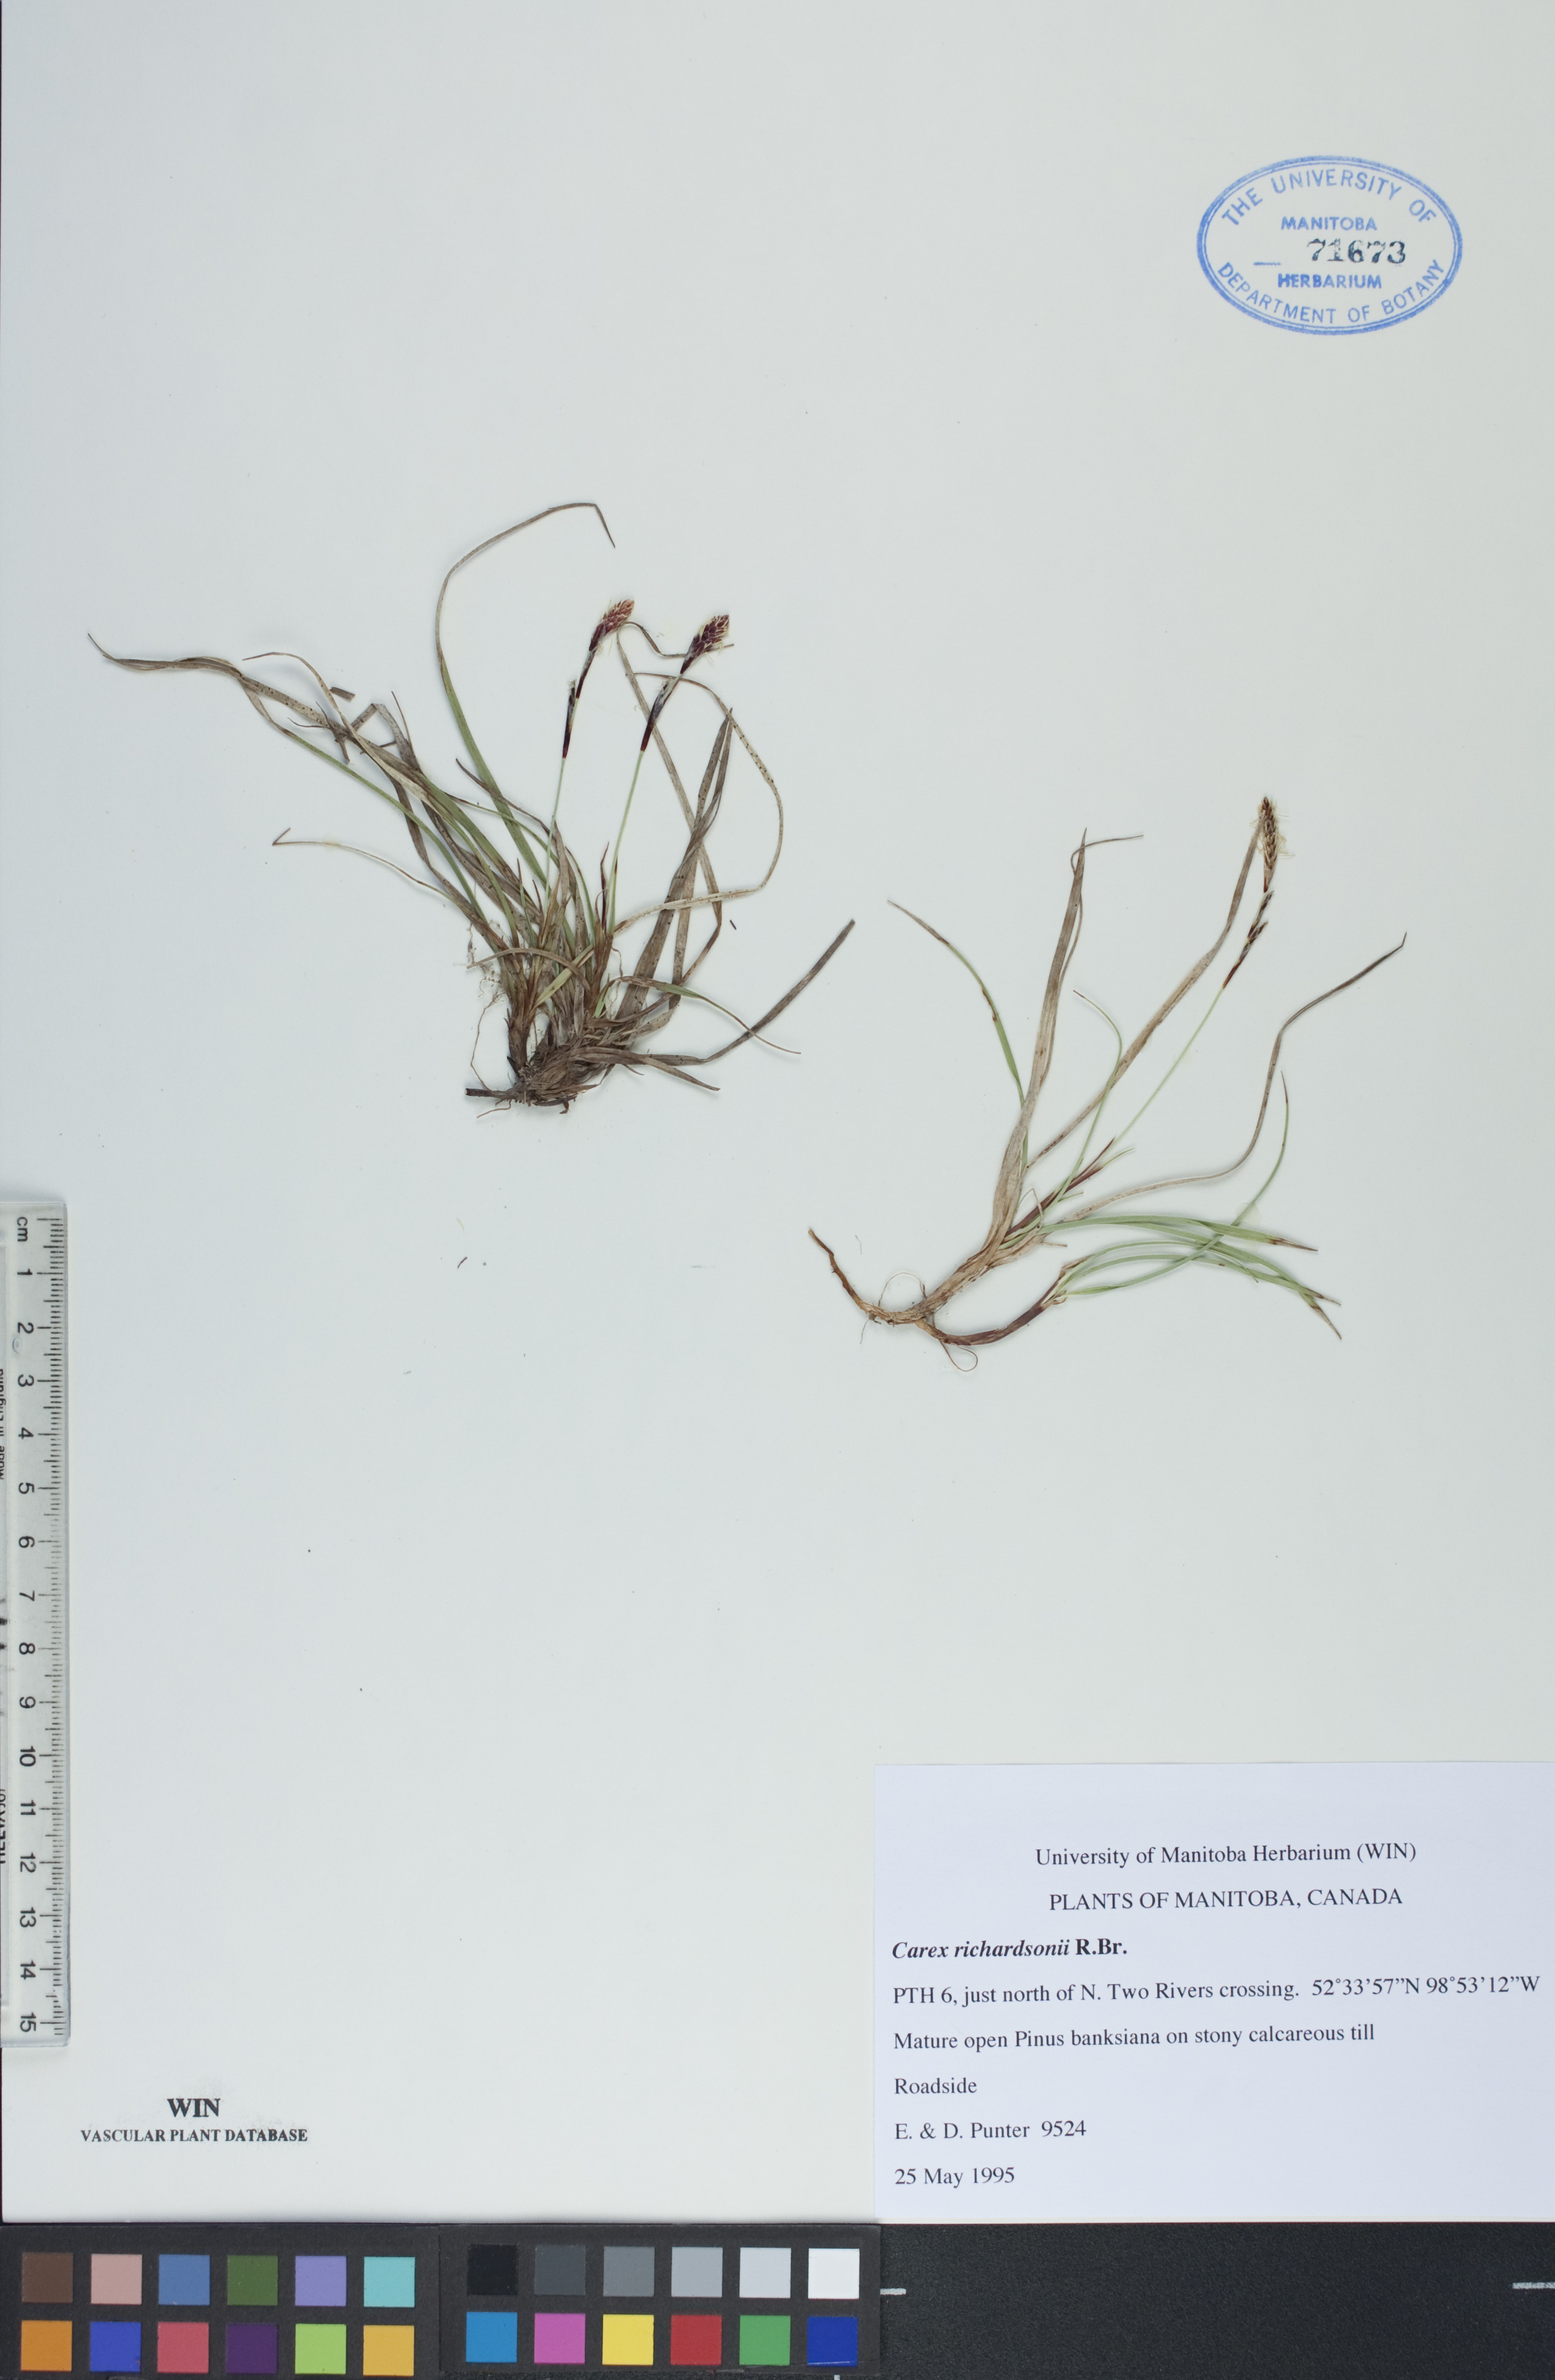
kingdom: Plantae
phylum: Tracheophyta
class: Liliopsida
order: Poales
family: Cyperaceae
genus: Carex
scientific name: Carex richardsonii
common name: Prairie hummock sedge
